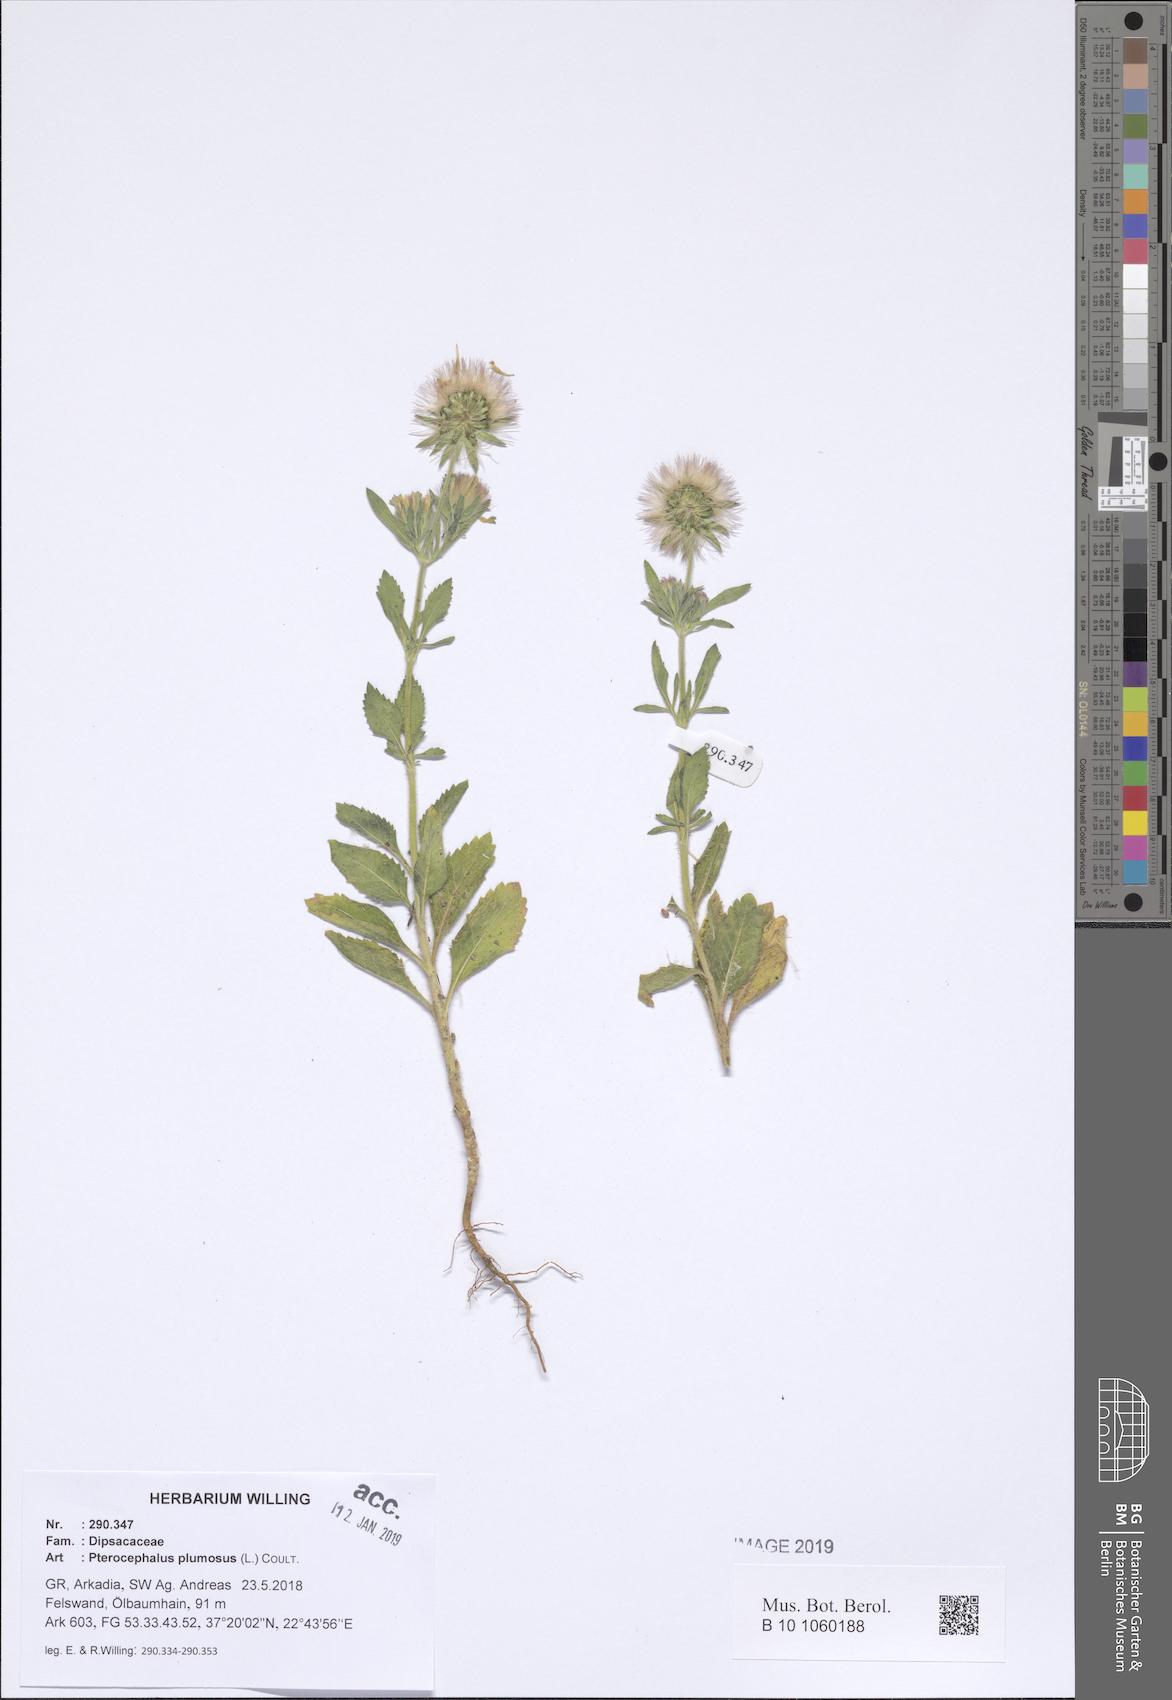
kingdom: Plantae
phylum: Tracheophyta
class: Magnoliopsida
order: Dipsacales
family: Caprifoliaceae
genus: Pterocephalus
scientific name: Pterocephalus plumosus
